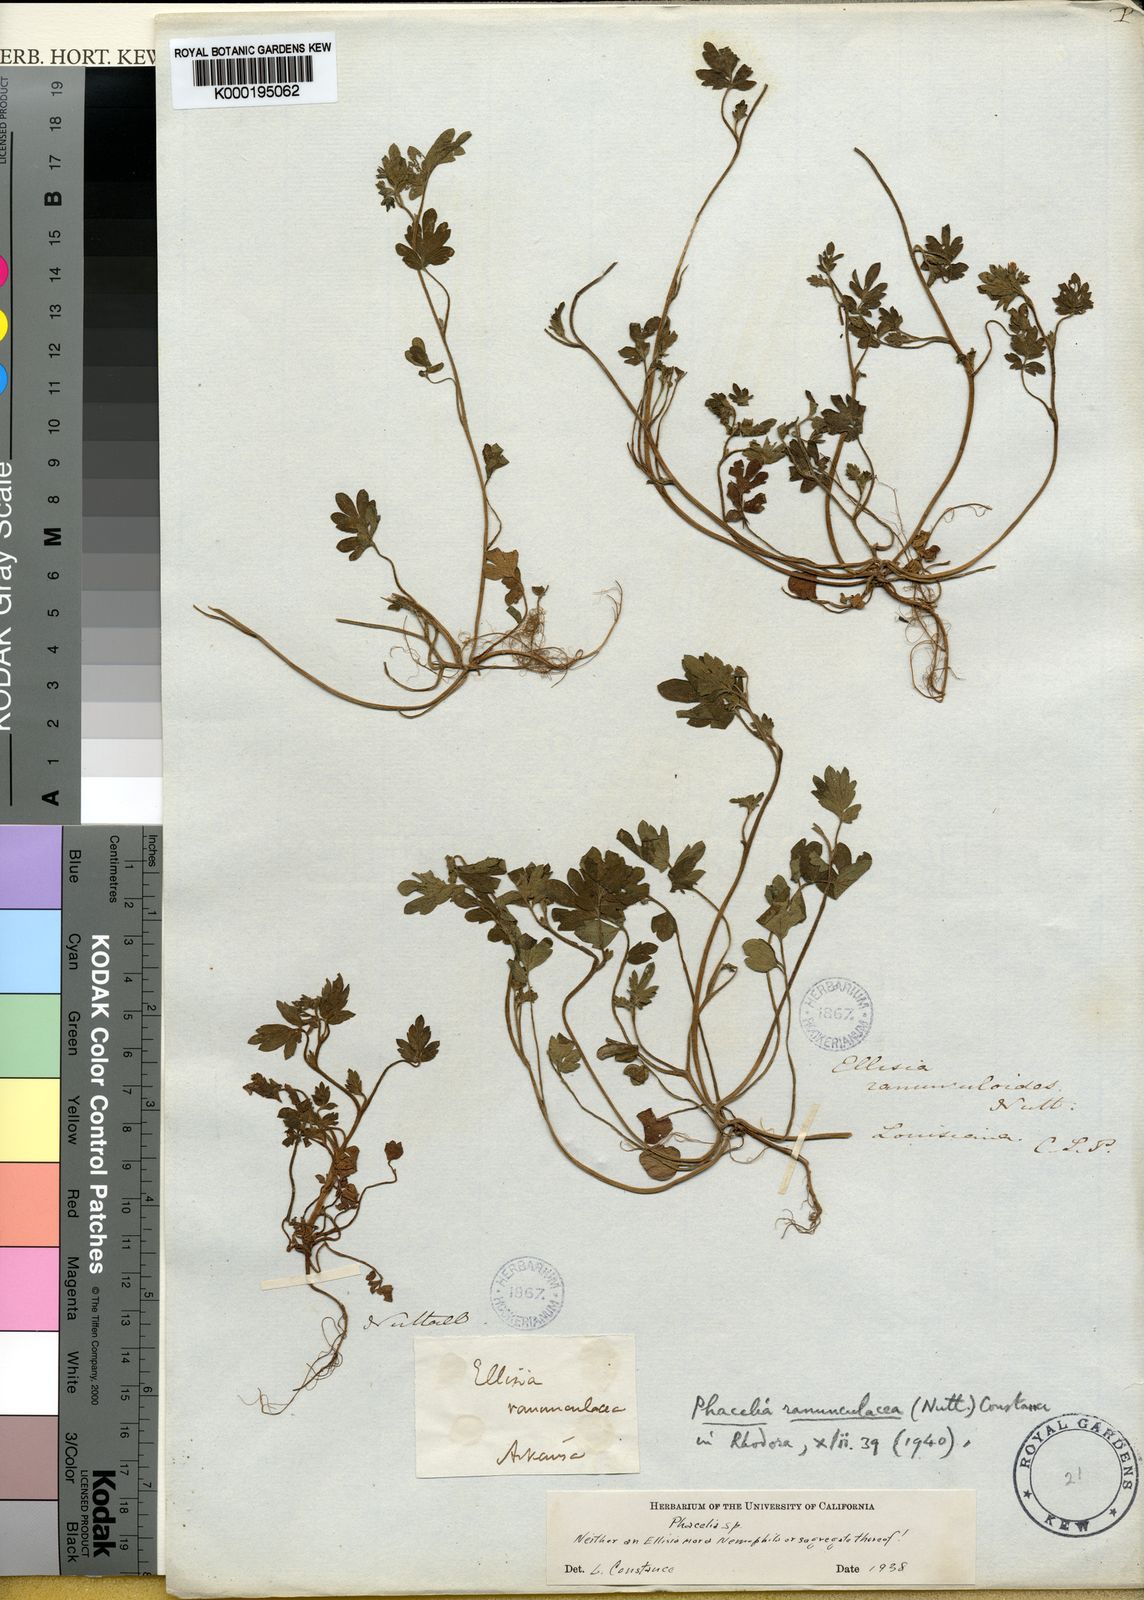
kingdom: Plantae
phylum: Tracheophyta
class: Magnoliopsida
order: Boraginales
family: Hydrophyllaceae
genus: Phacelia
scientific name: Phacelia ranunculacea
